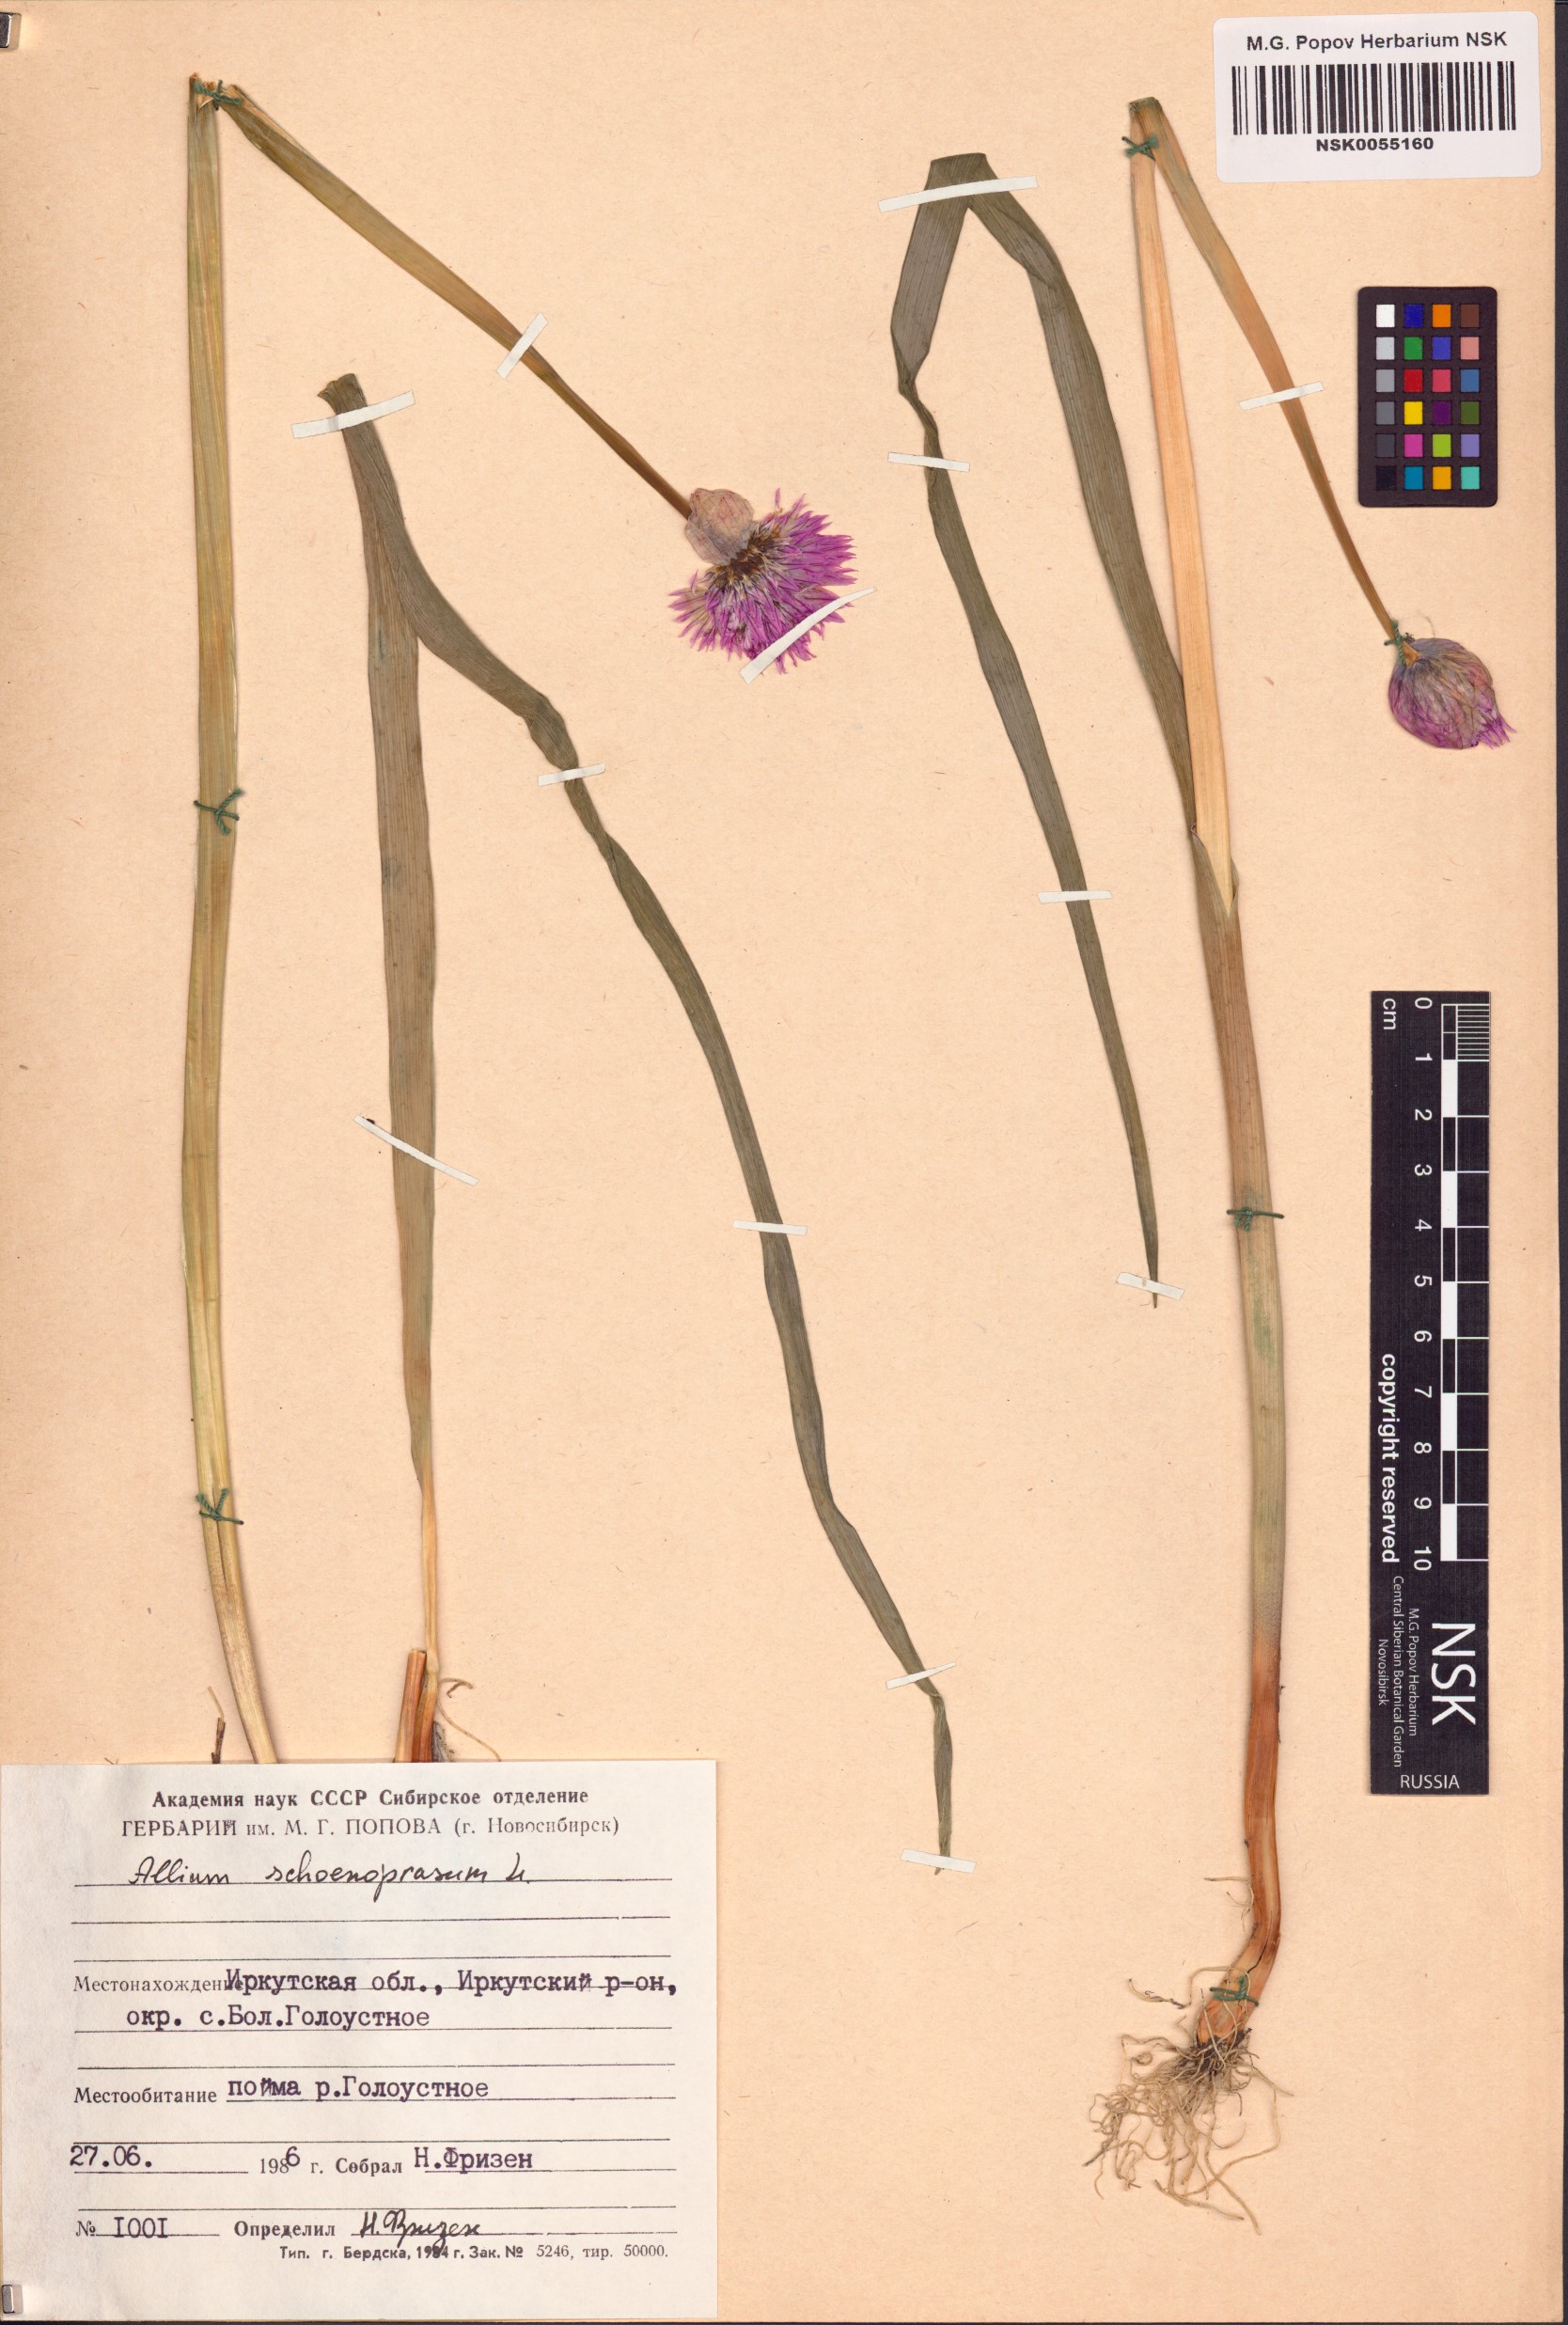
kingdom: Plantae
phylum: Tracheophyta
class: Liliopsida
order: Asparagales
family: Amaryllidaceae
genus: Allium
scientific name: Allium schoenoprasum
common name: Chives
